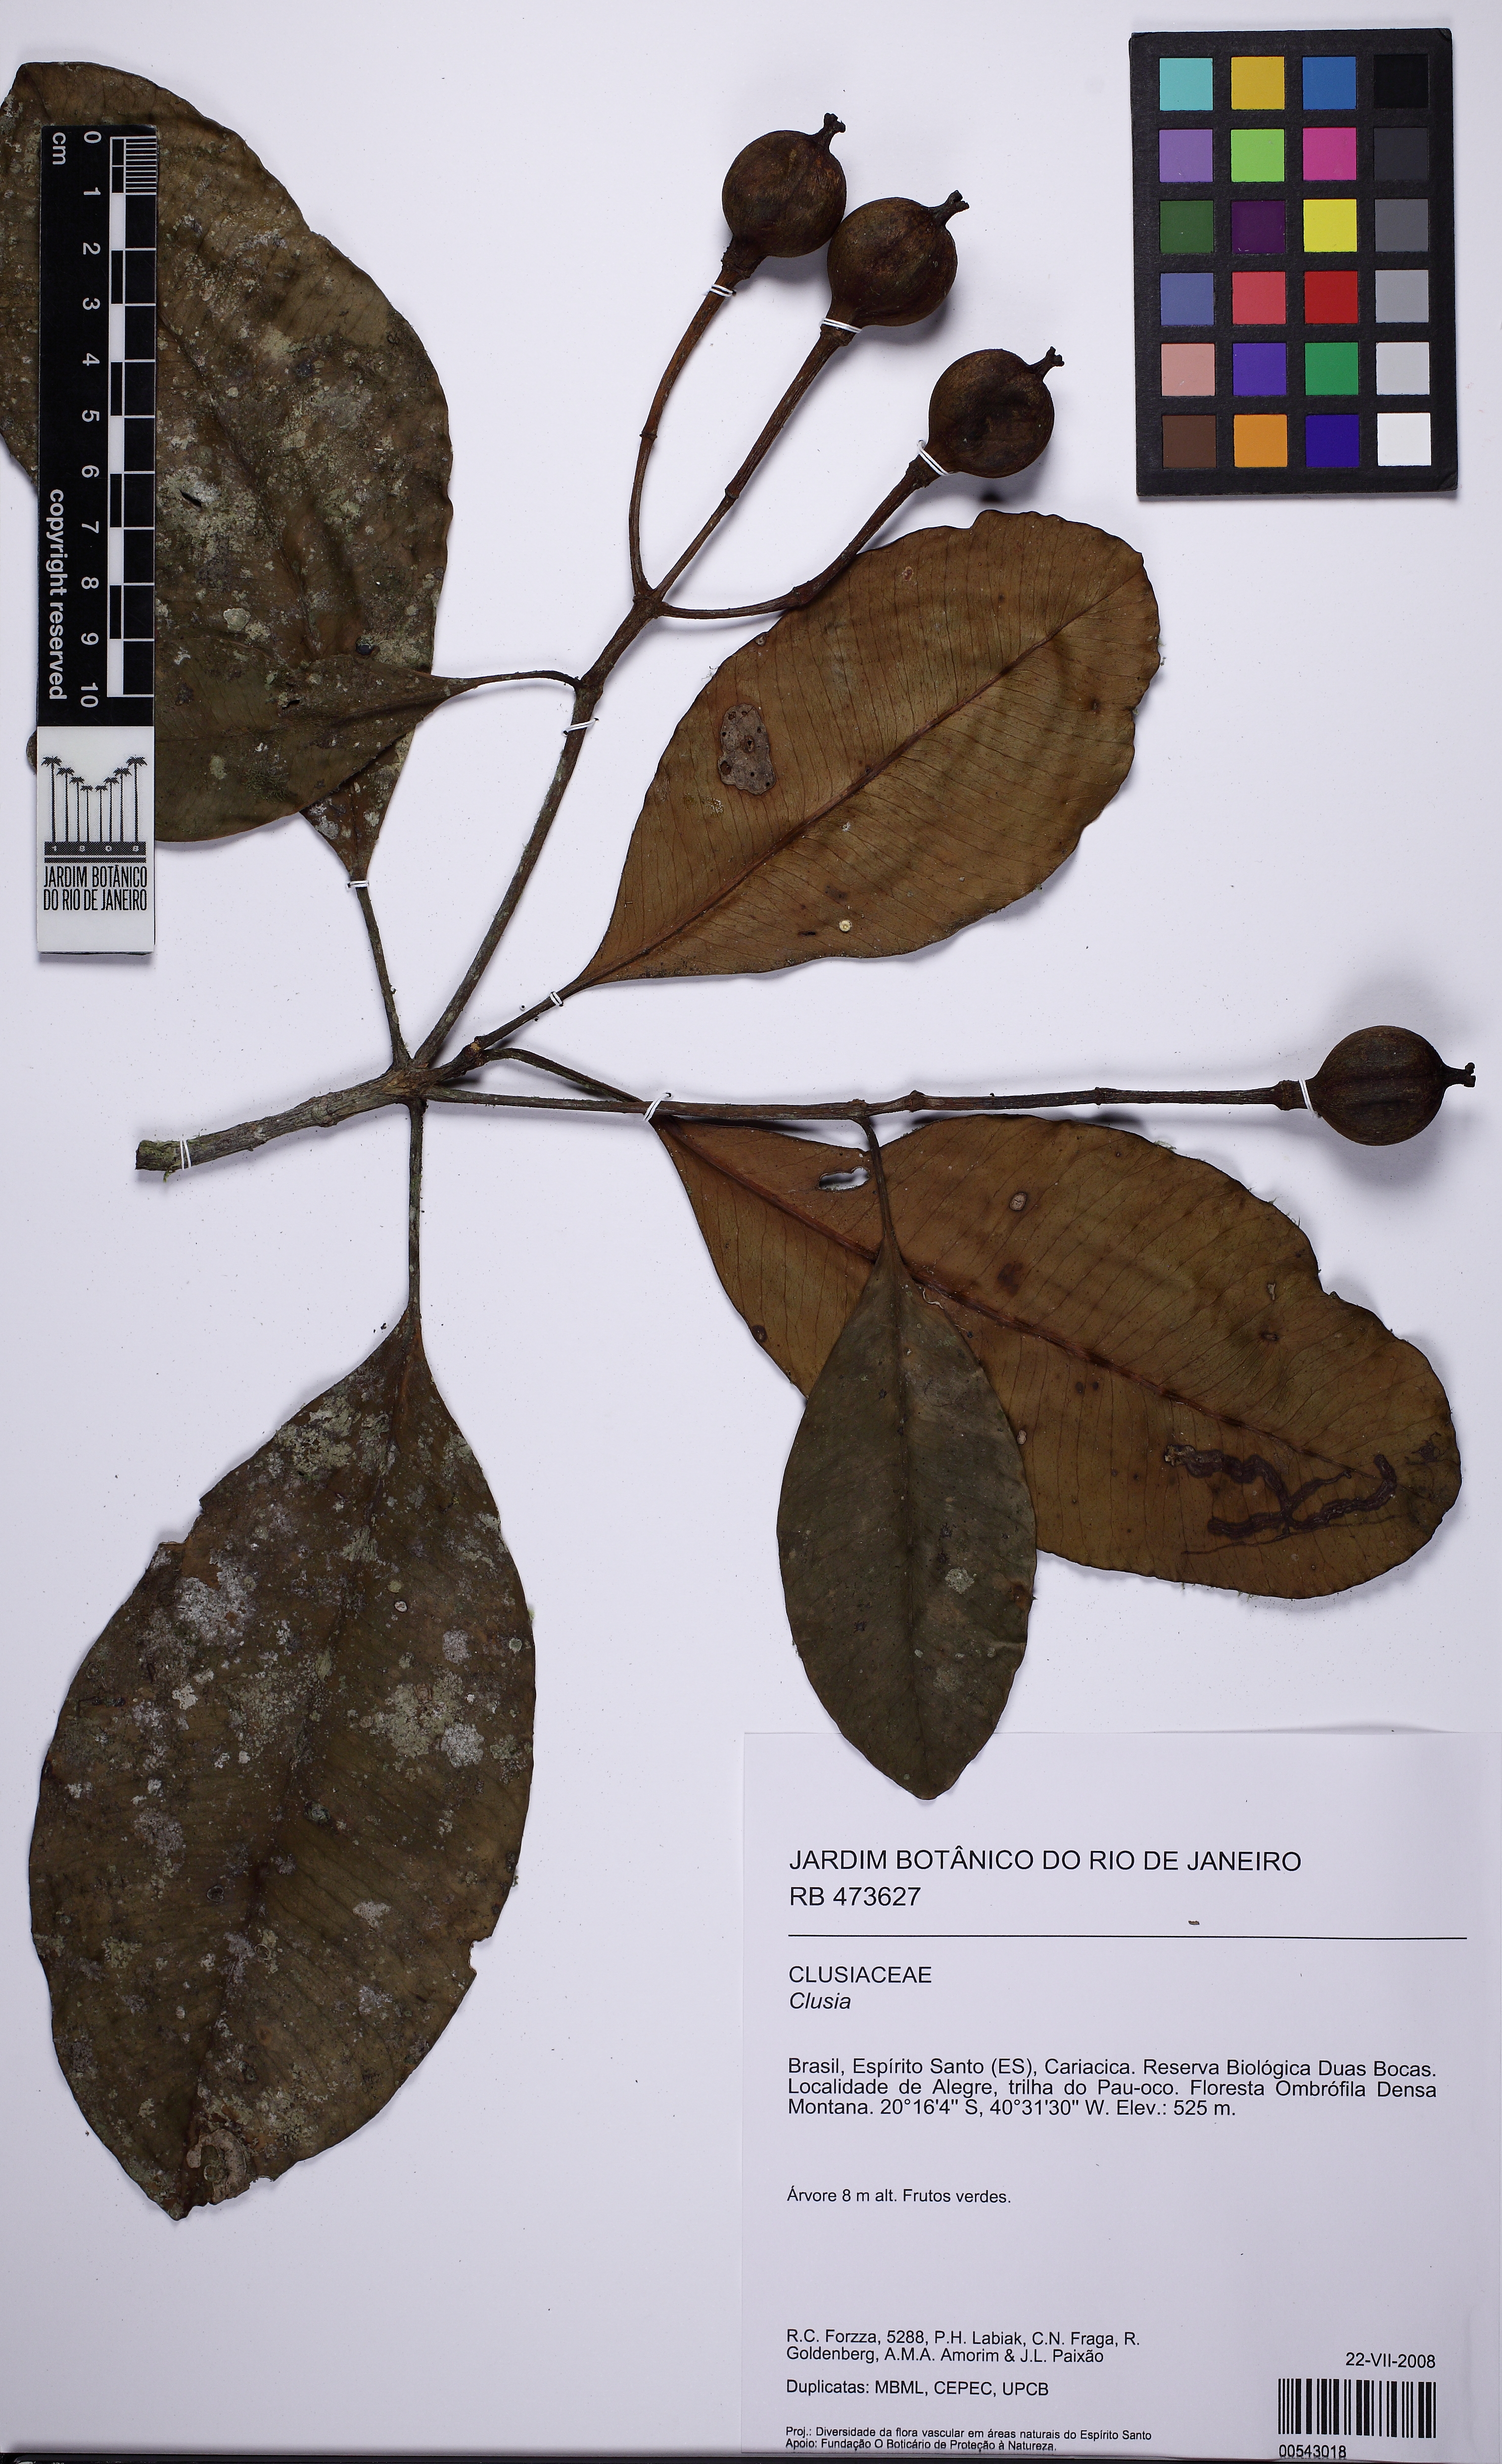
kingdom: Plantae
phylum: Tracheophyta
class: Magnoliopsida
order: Malpighiales
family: Clusiaceae
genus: Tovomitopsis
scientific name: Tovomitopsis
